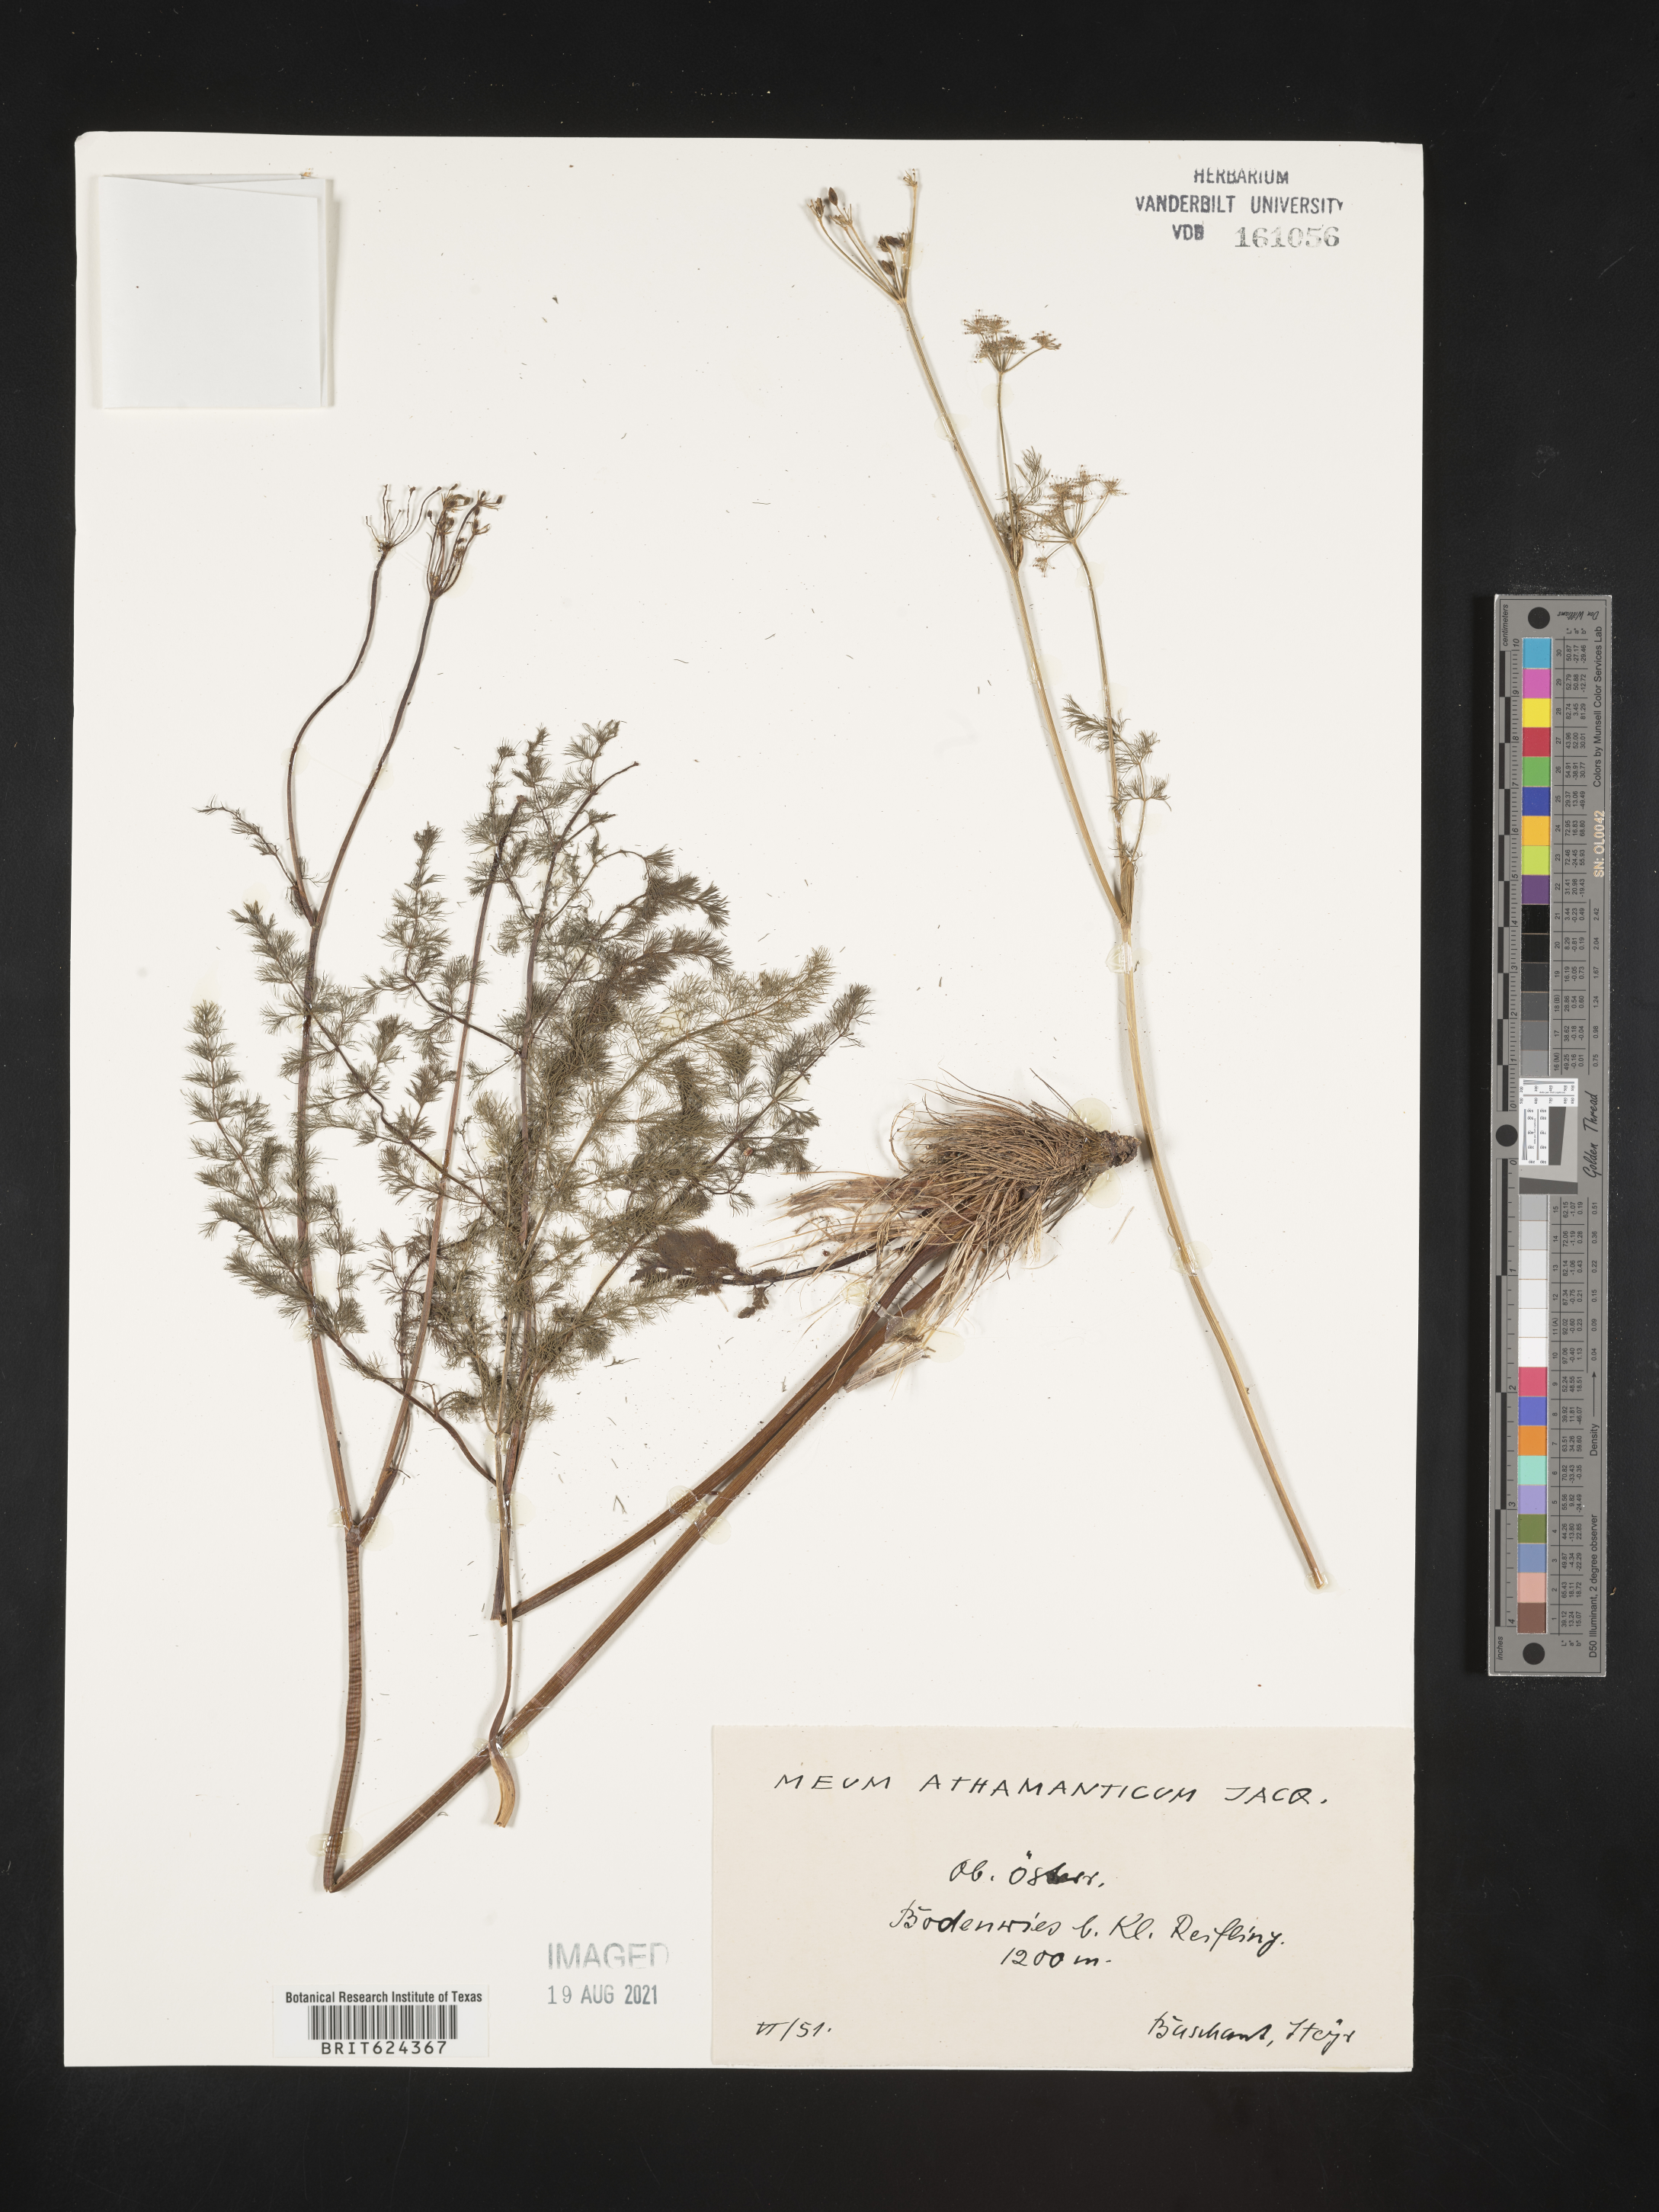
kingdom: Plantae
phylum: Tracheophyta
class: Magnoliopsida
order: Apiales
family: Apiaceae
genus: Meum
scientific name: Meum athamanticum
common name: Spignel
